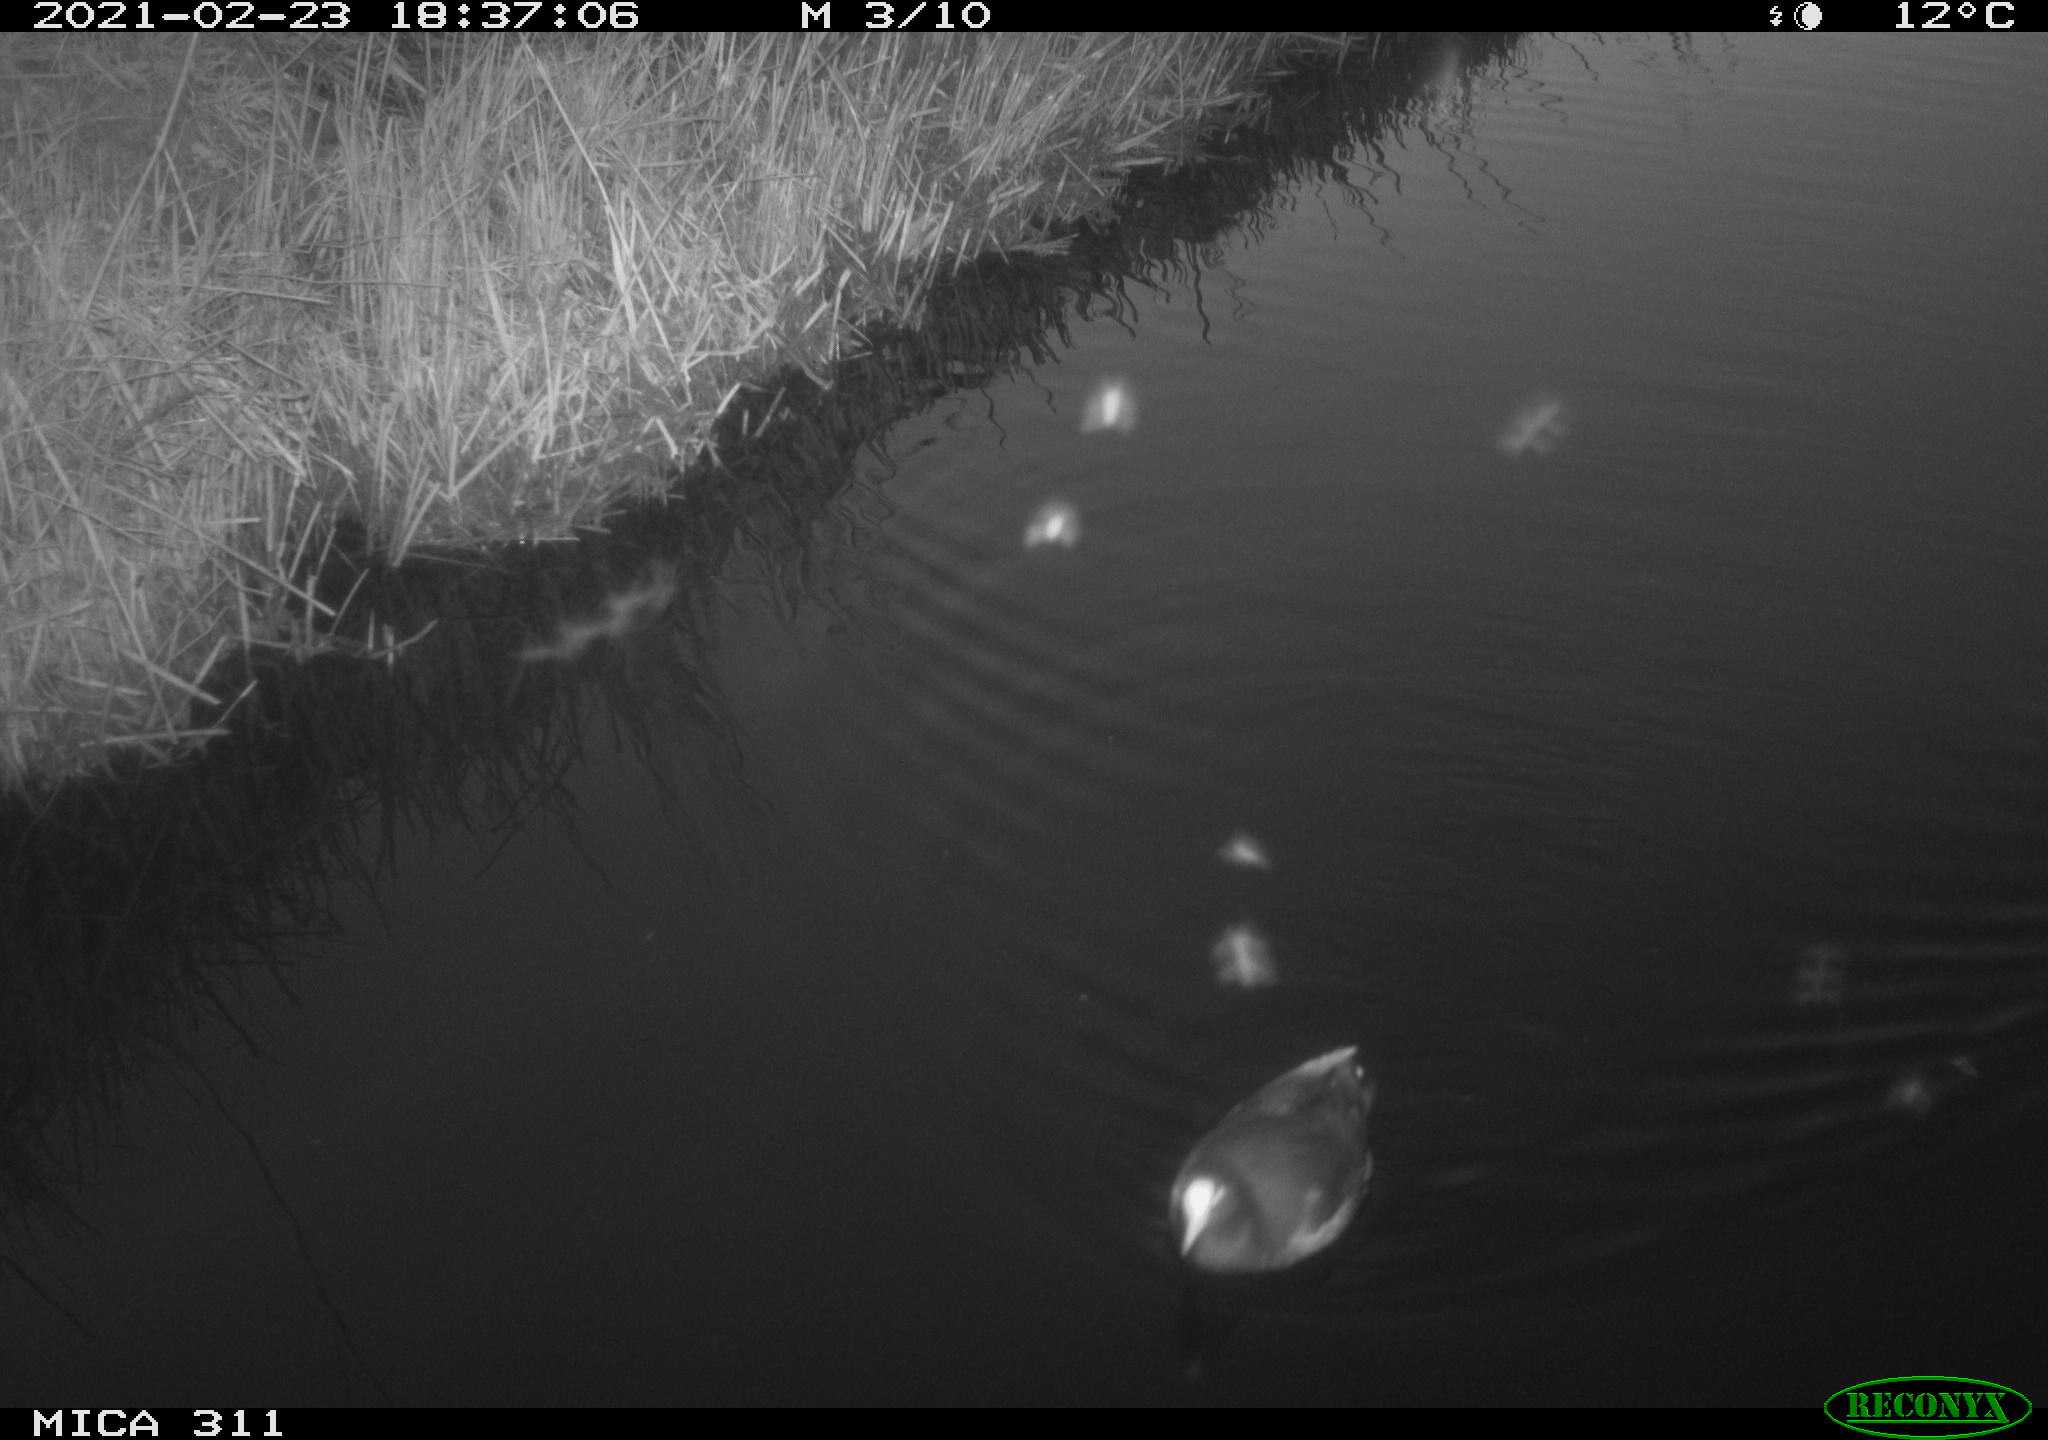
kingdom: Animalia
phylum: Chordata
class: Aves
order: Gruiformes
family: Rallidae
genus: Gallinula
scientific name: Gallinula chloropus
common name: Common moorhen
